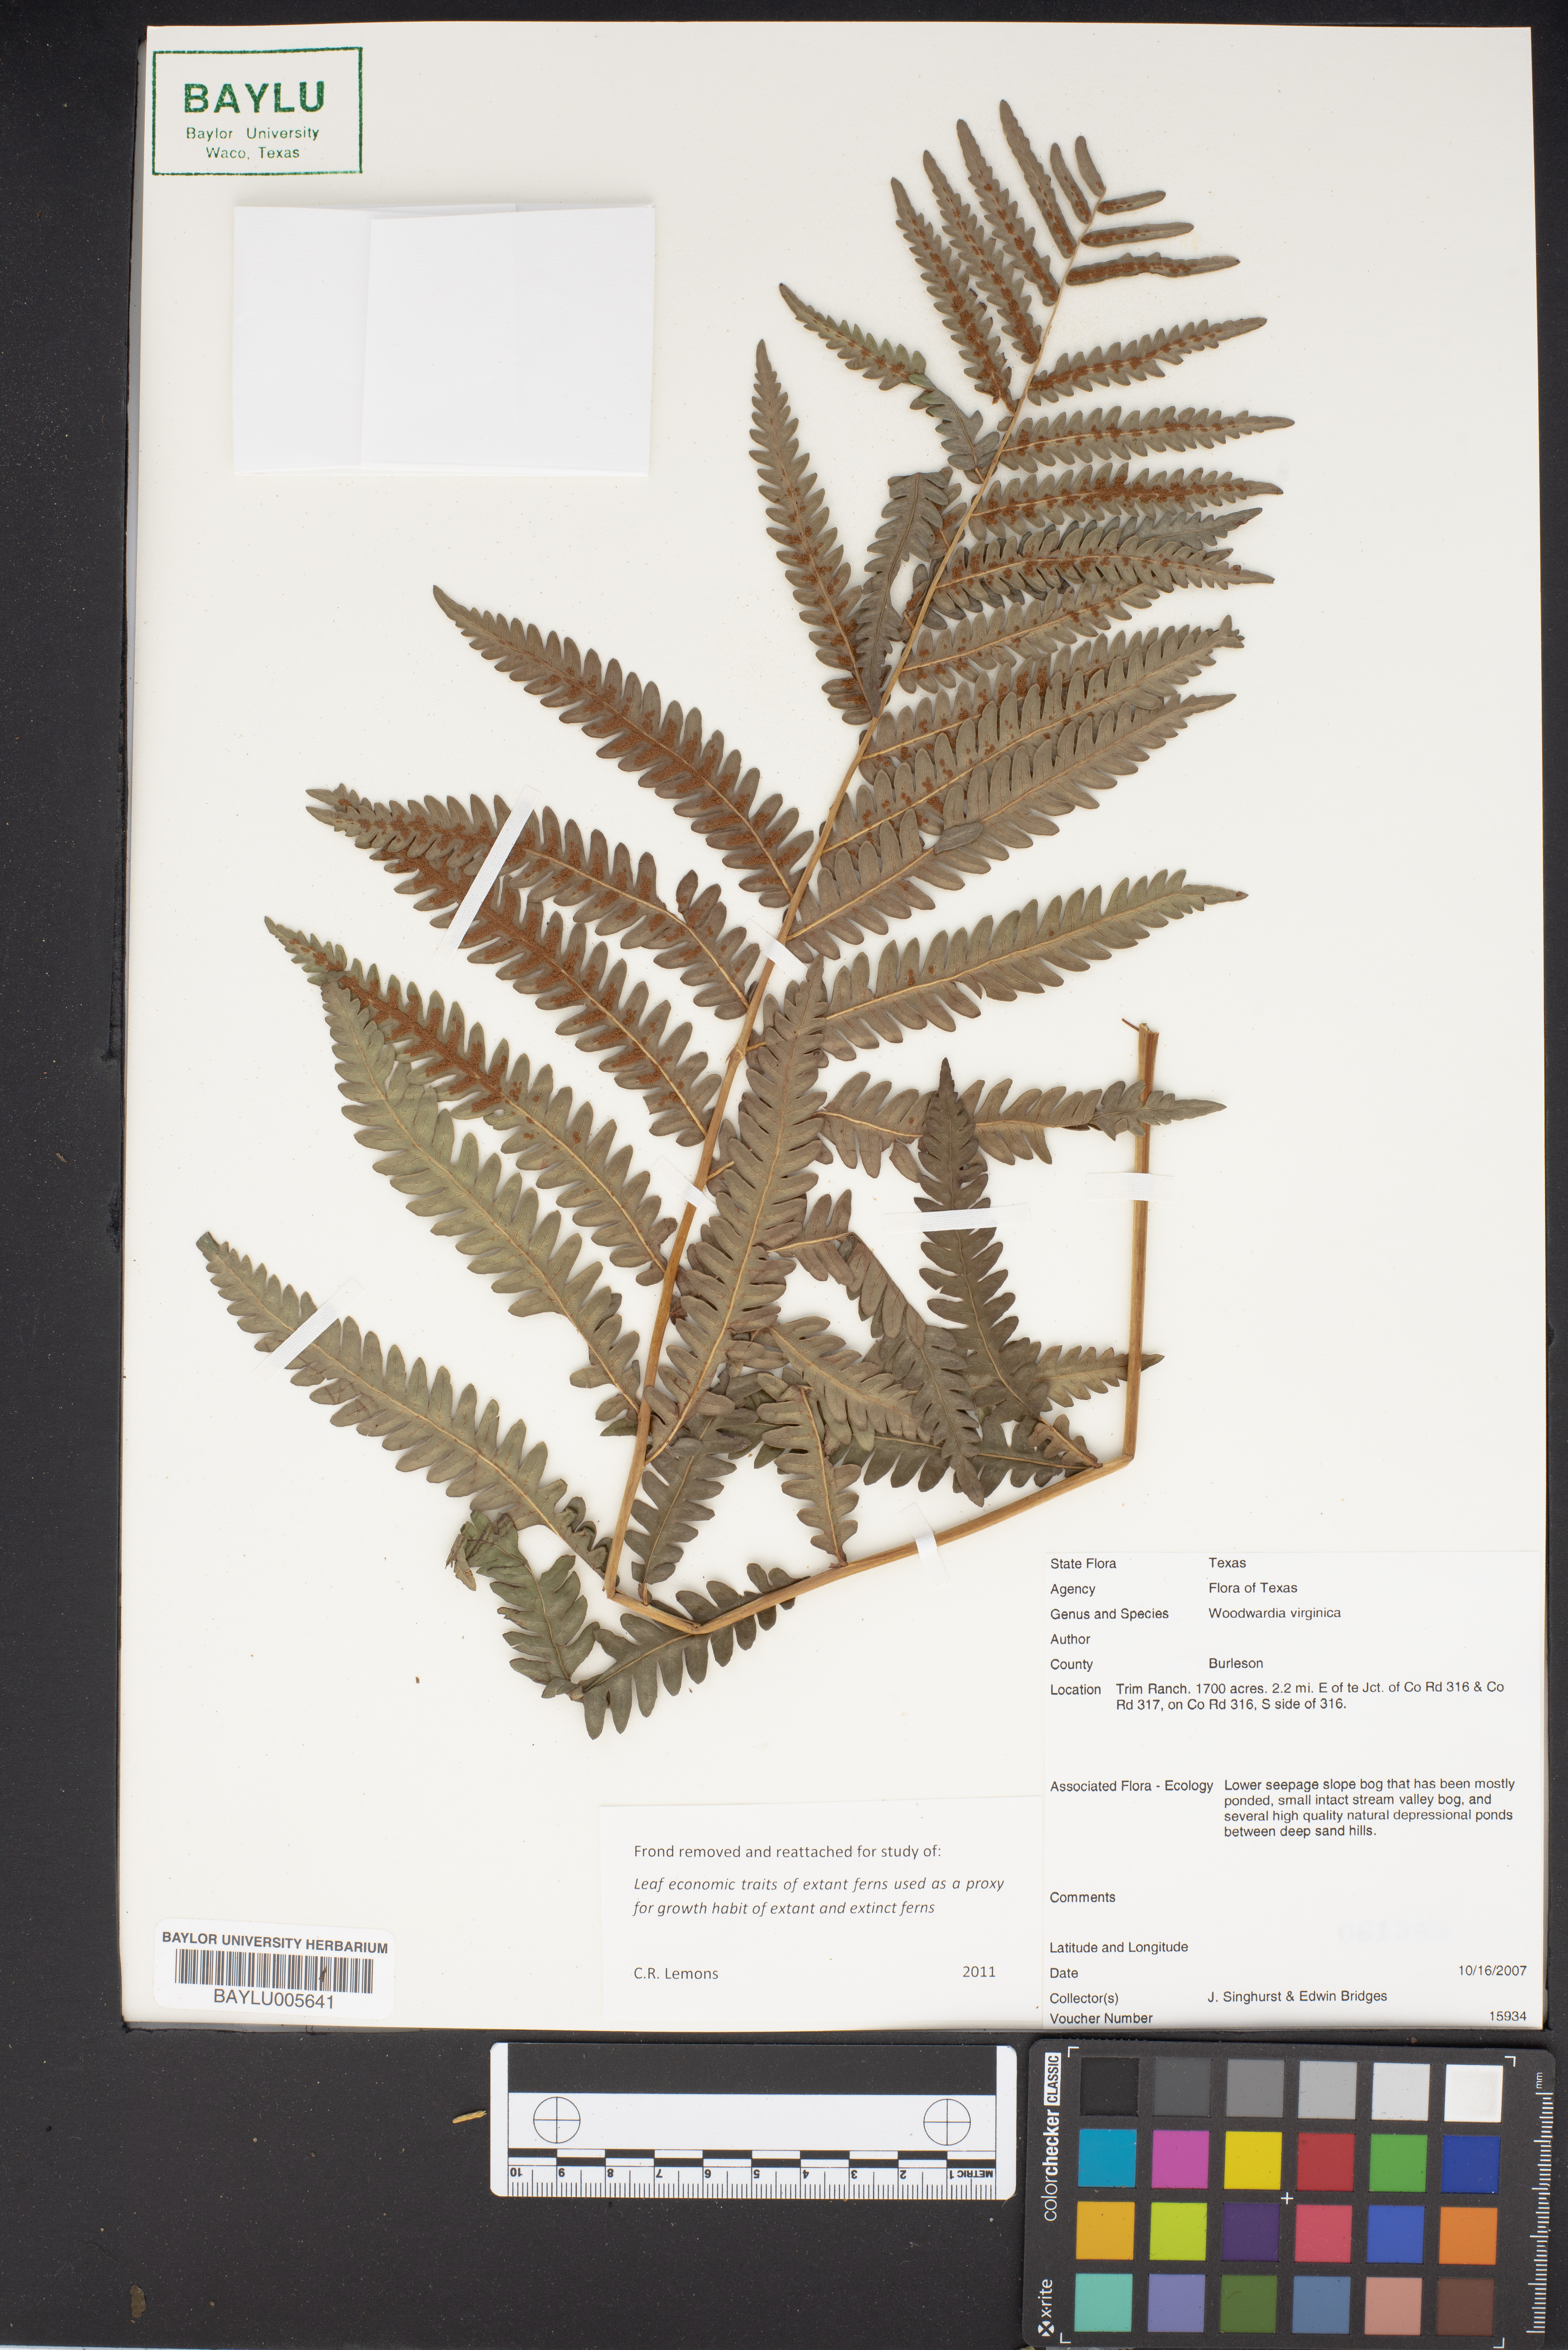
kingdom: Plantae
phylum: Tracheophyta
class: Polypodiopsida
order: Polypodiales
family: Blechnaceae
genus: Anchistea
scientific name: Anchistea virginica
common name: Virginia chain fern
